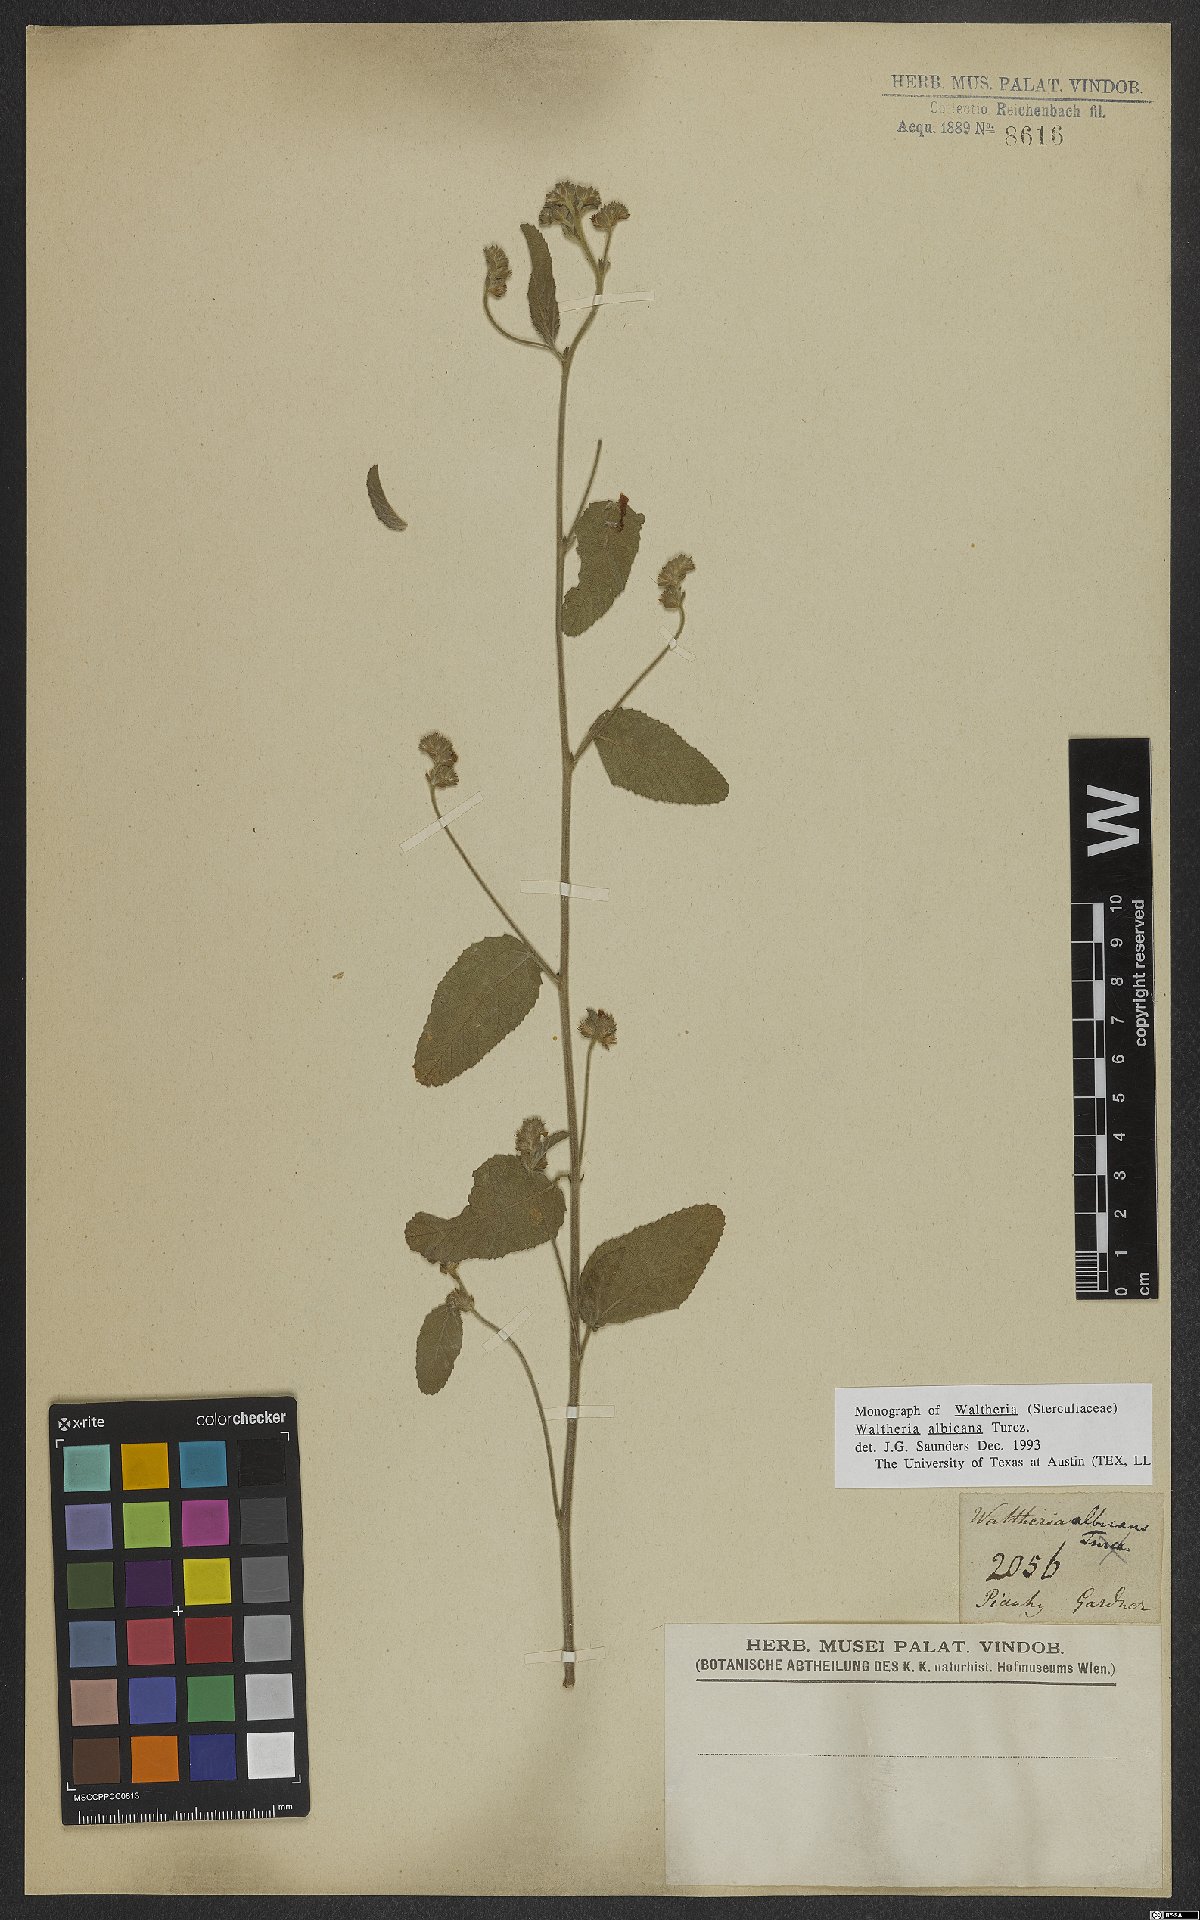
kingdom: Plantae
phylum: Tracheophyta
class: Magnoliopsida
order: Malvales
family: Malvaceae
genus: Waltheria
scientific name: Waltheria albicans
